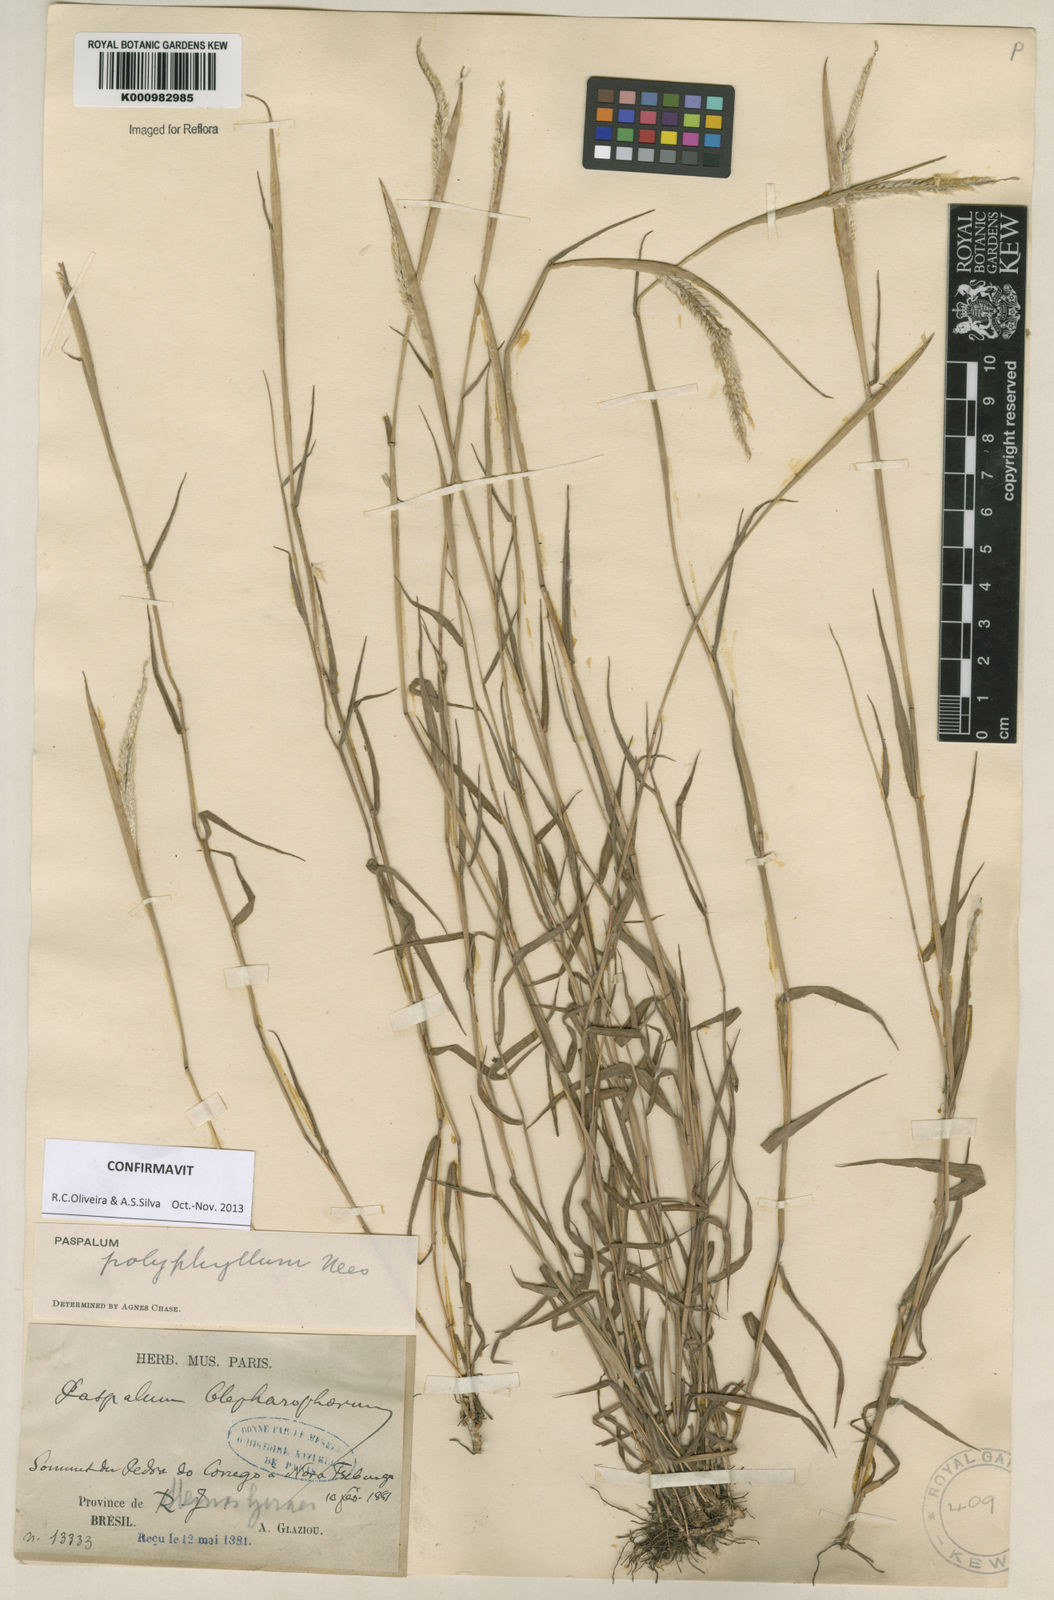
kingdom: Plantae
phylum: Tracheophyta
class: Liliopsida
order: Poales
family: Poaceae
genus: Paspalum
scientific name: Paspalum
